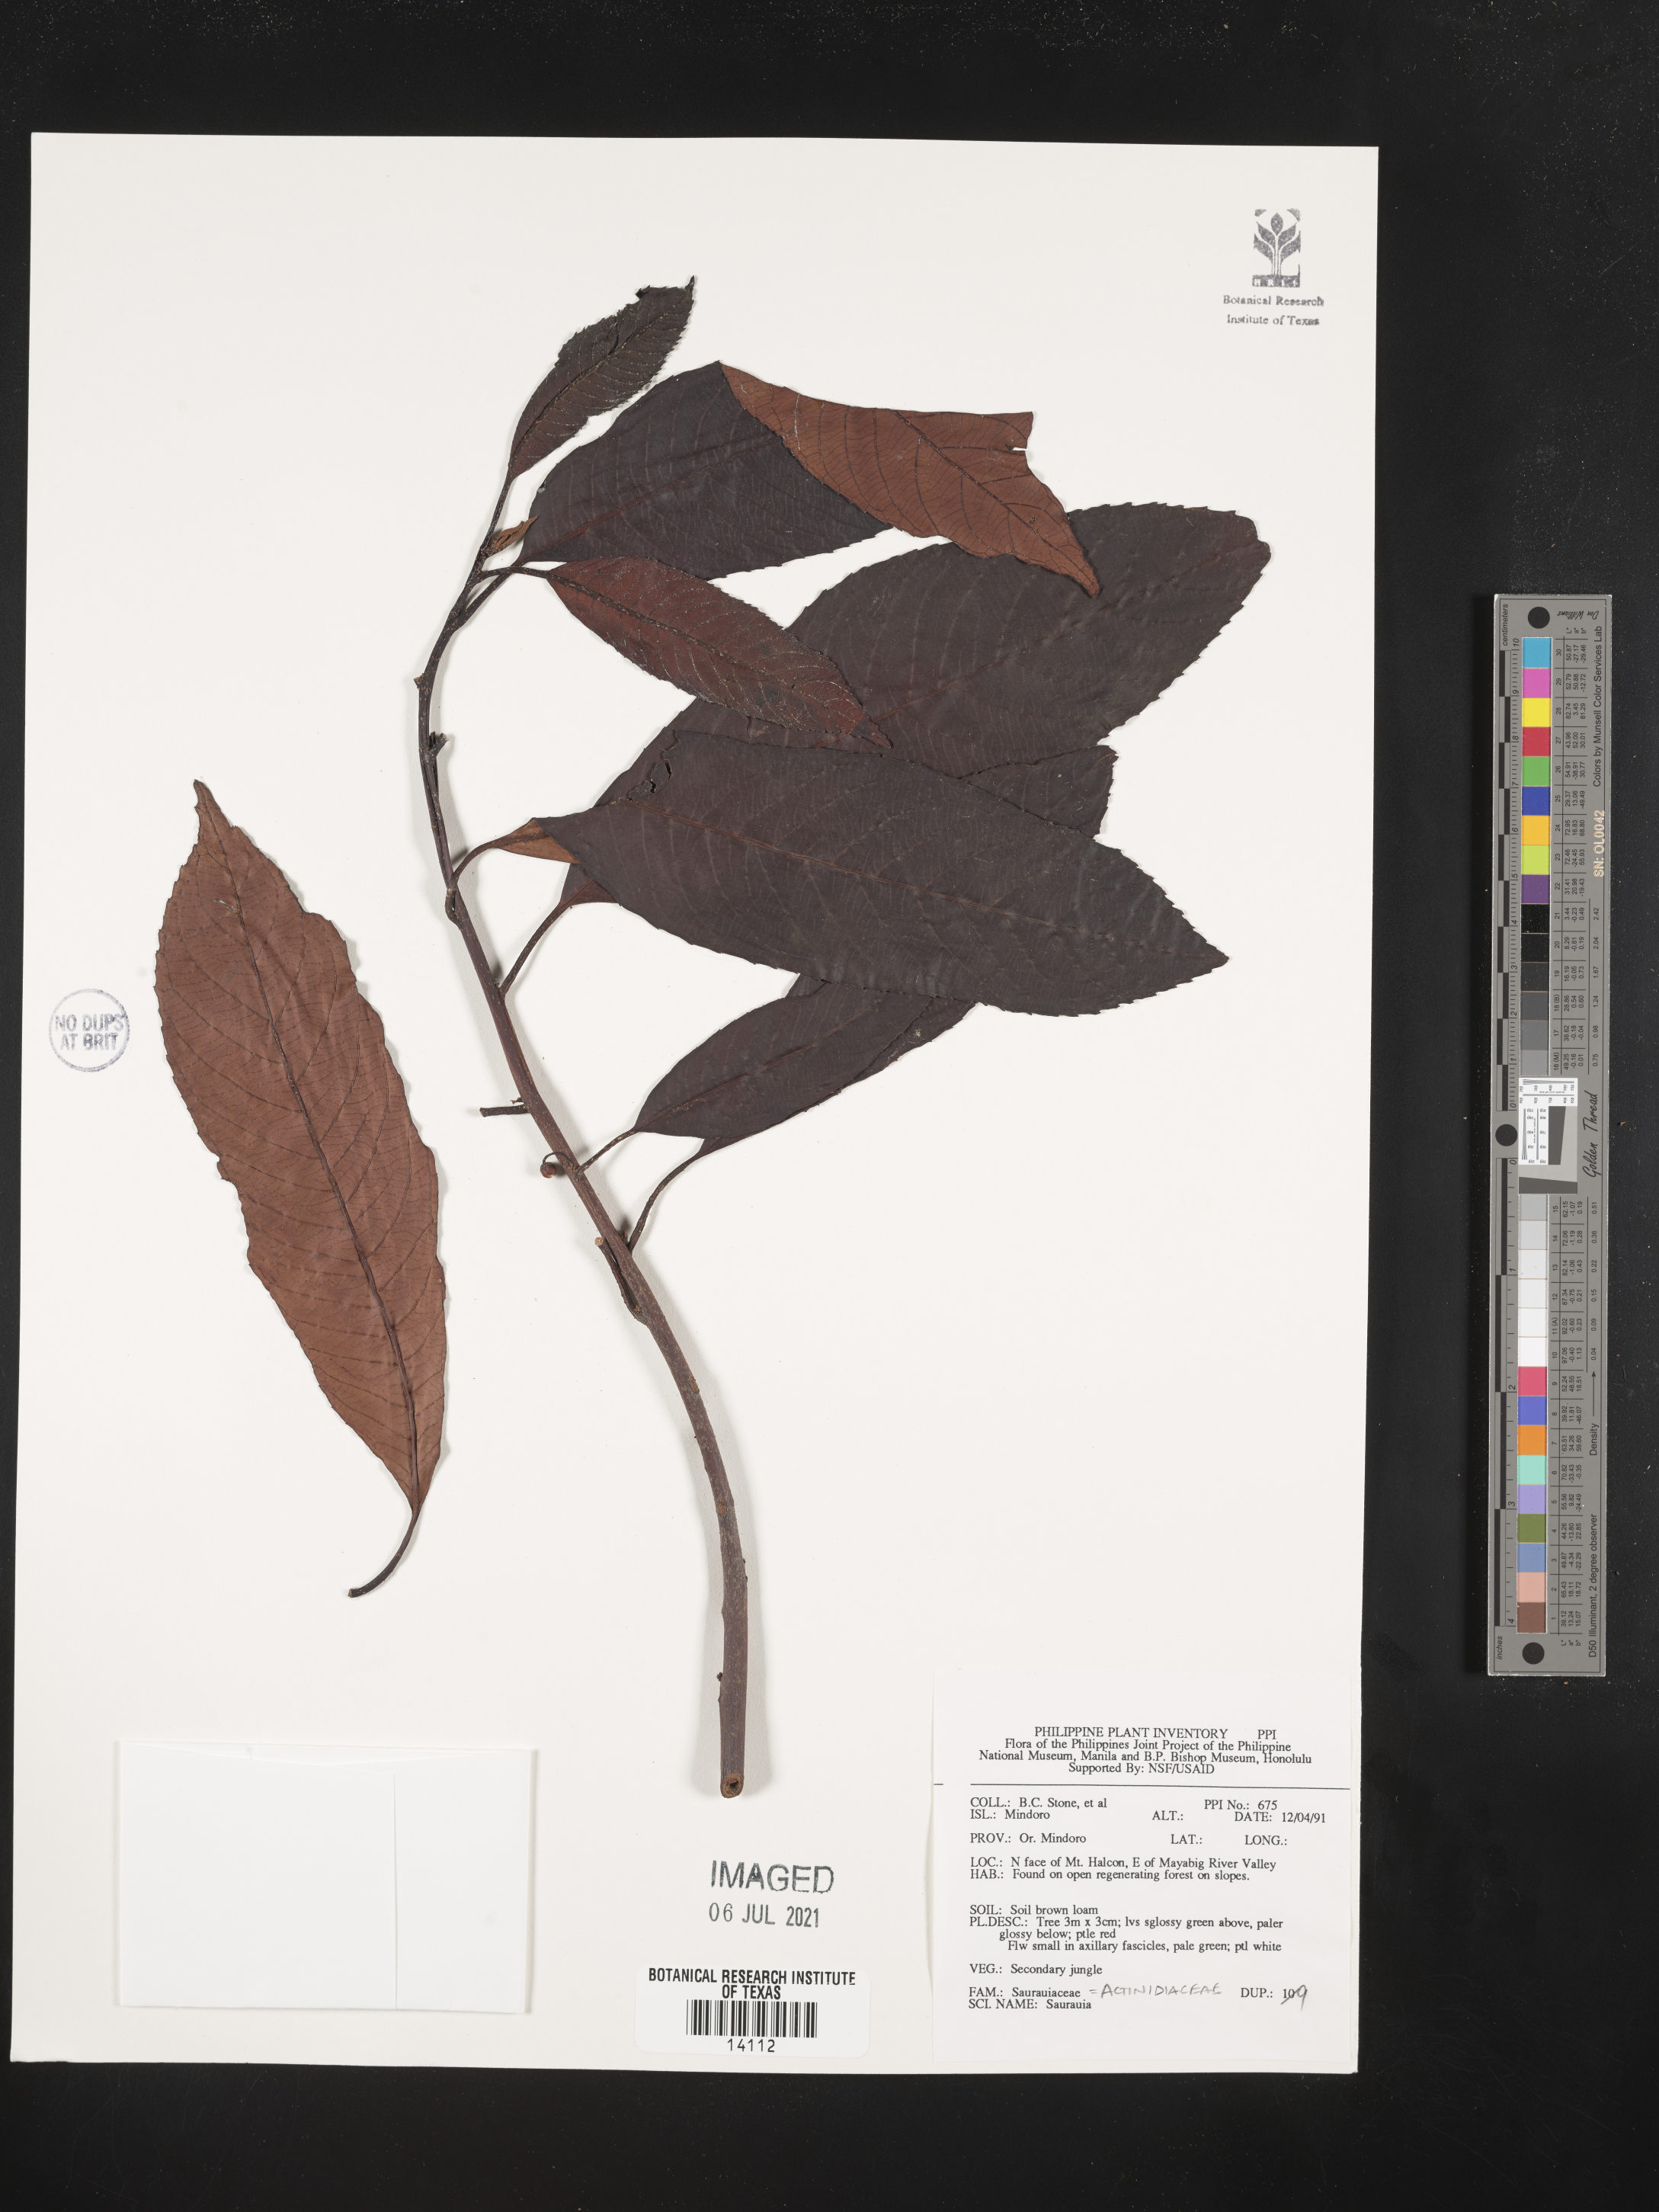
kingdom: Plantae
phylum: Tracheophyta
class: Magnoliopsida
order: Ericales
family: Actinidiaceae
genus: Saurauia
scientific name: Saurauia
